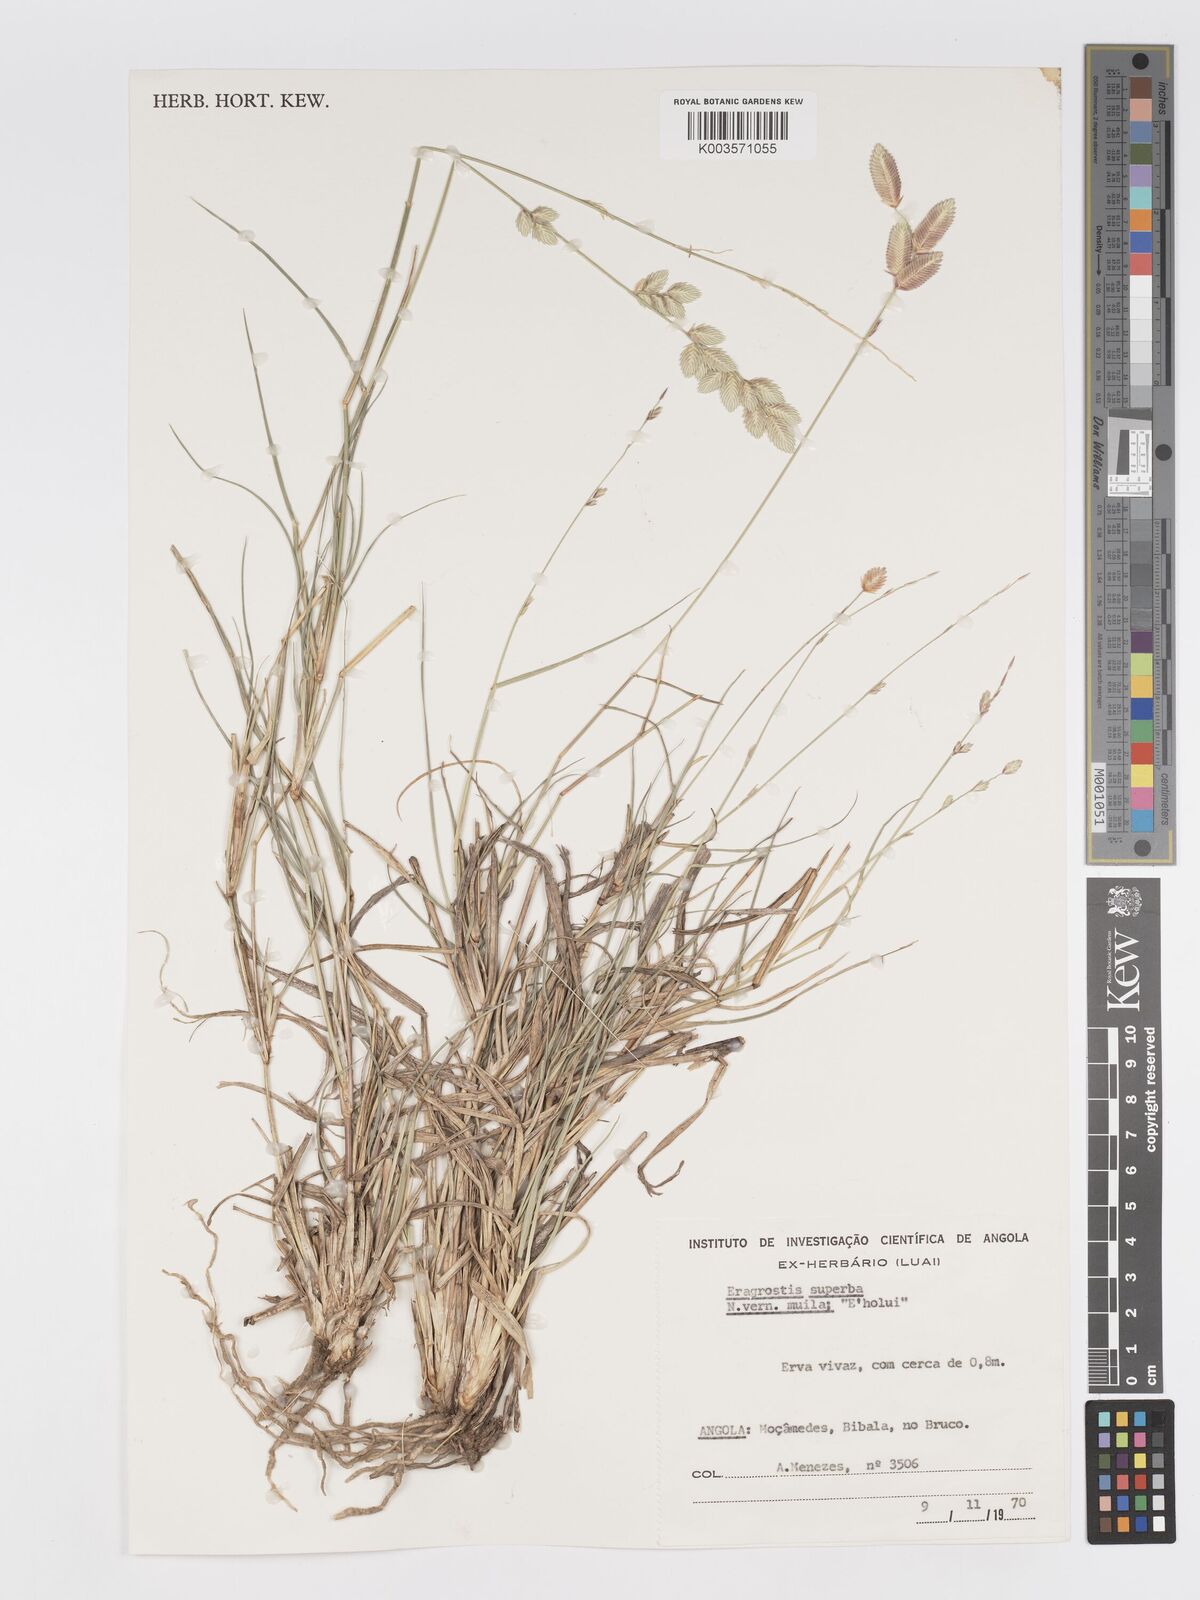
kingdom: Plantae
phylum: Tracheophyta
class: Liliopsida
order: Poales
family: Poaceae
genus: Eragrostis
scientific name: Eragrostis superba
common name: Wilman lovegrass
